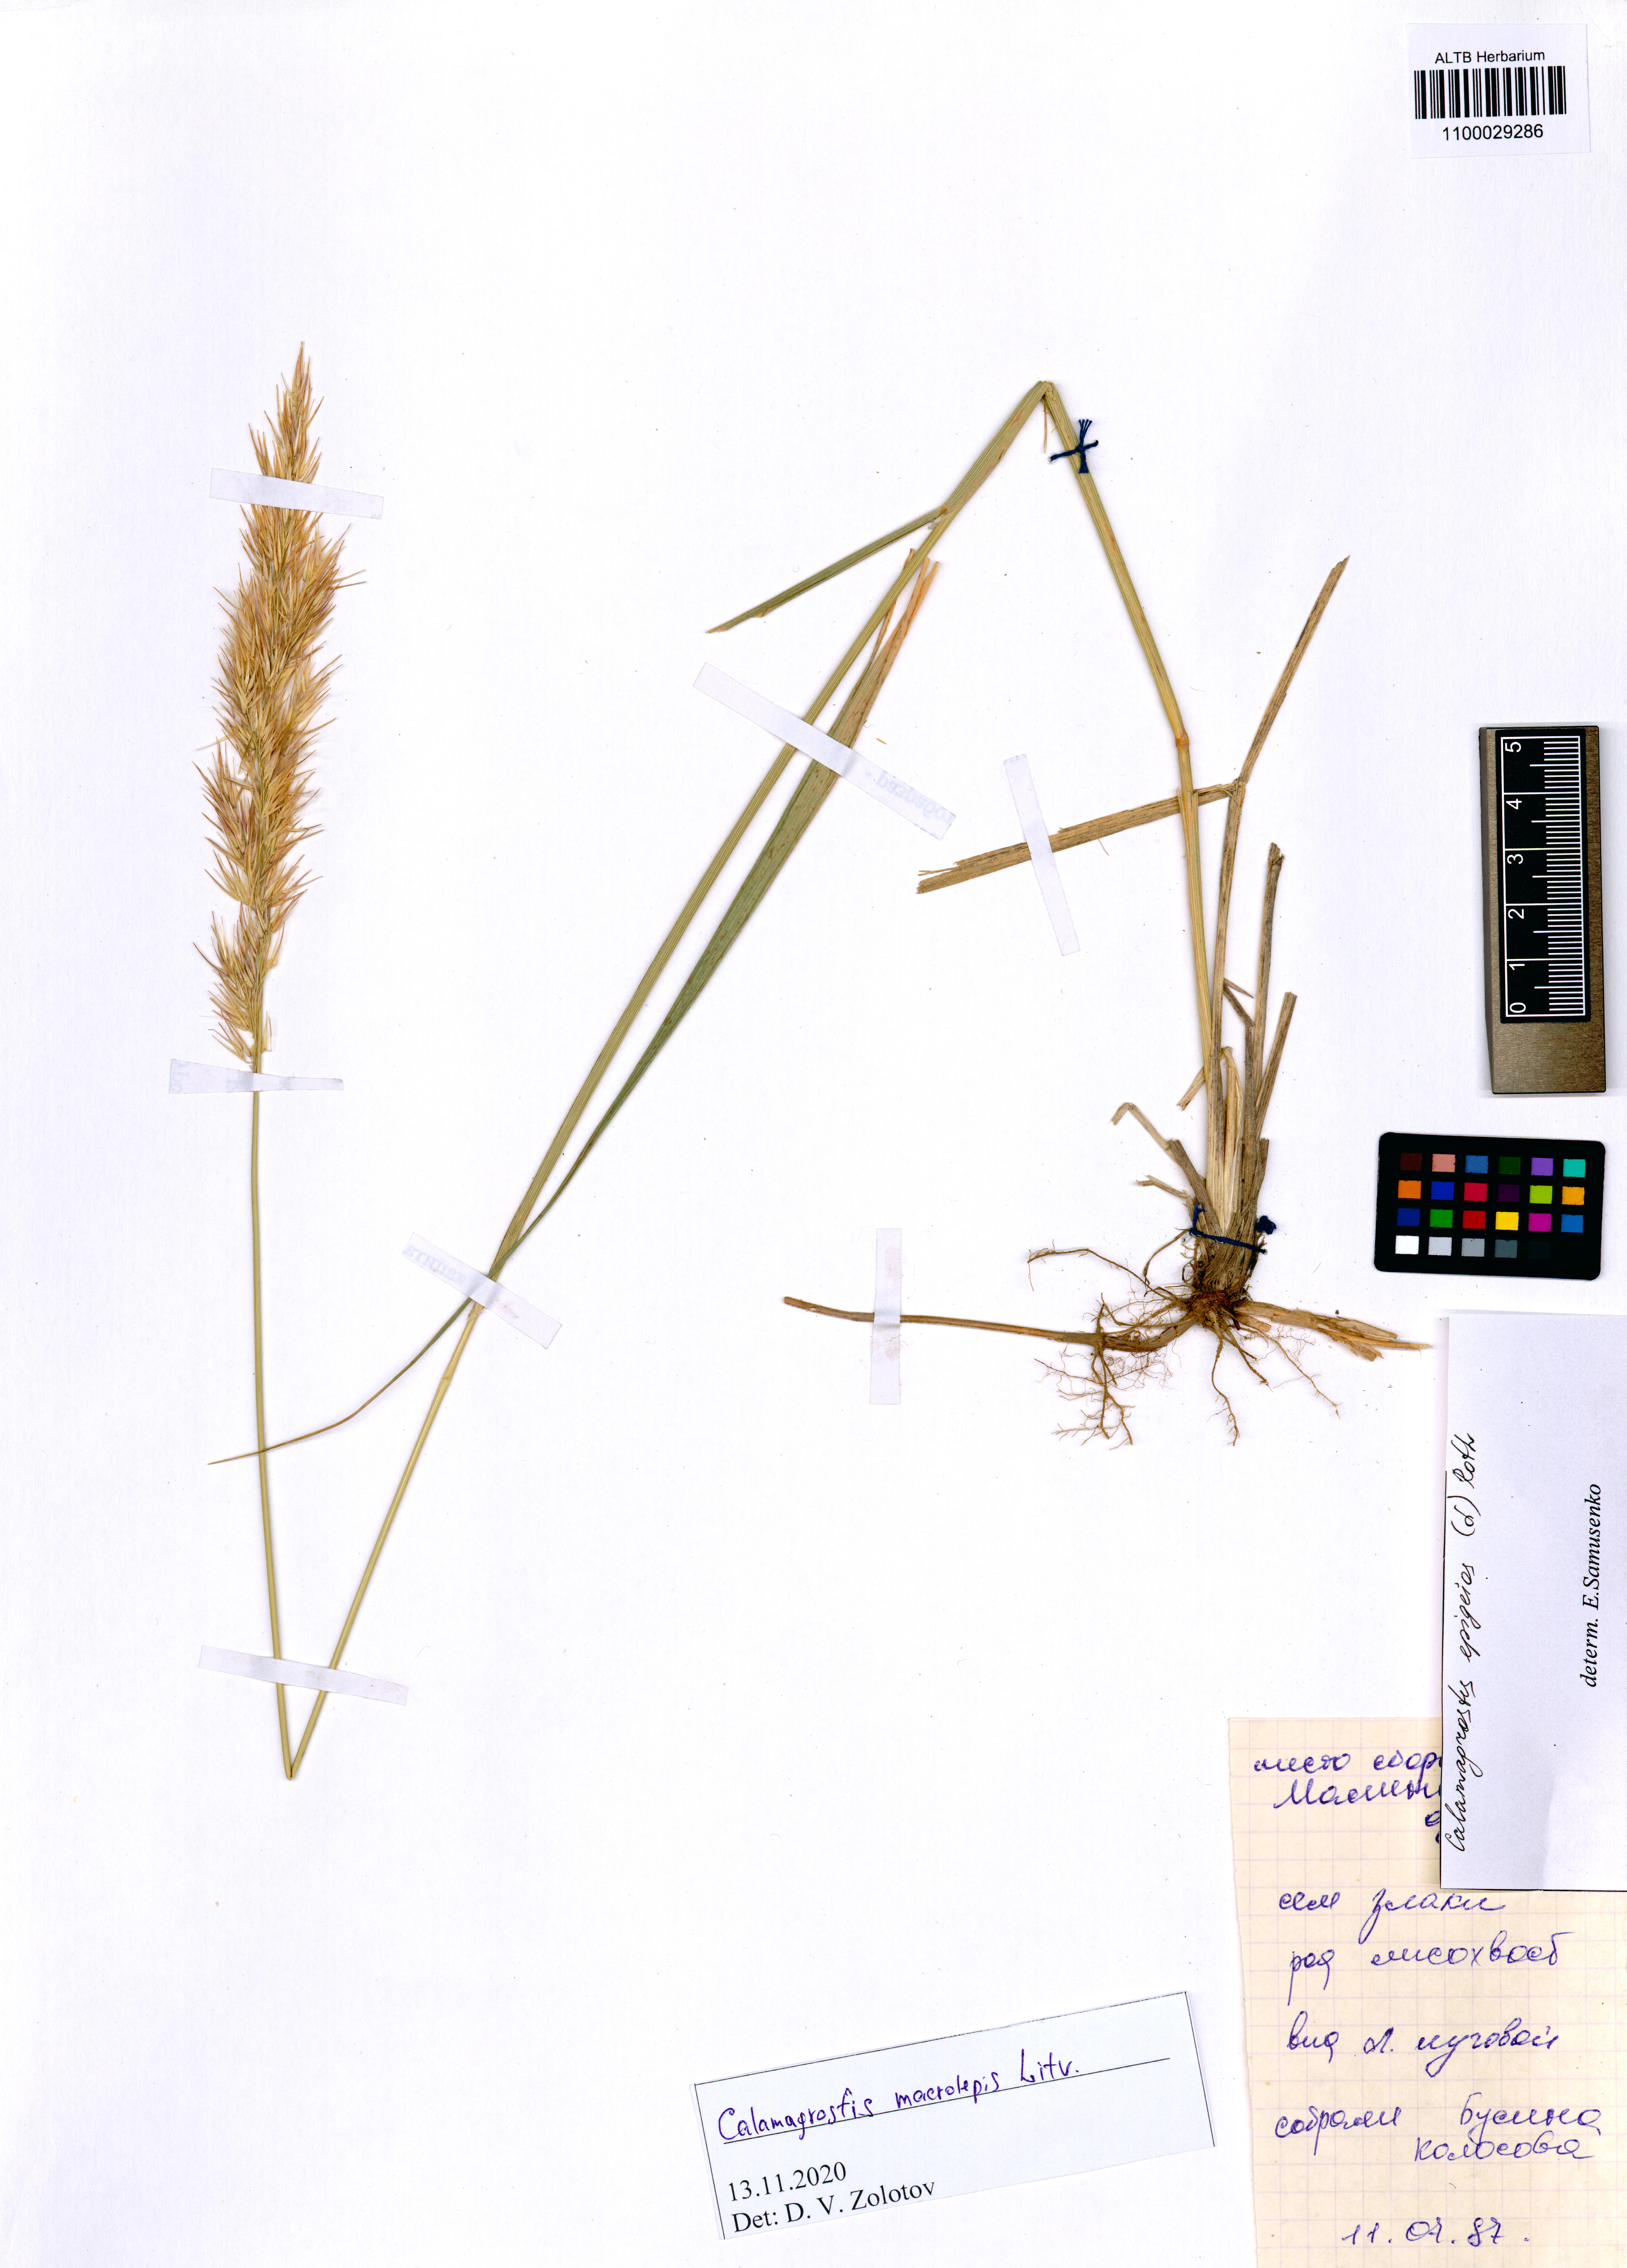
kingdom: Plantae
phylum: Tracheophyta
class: Liliopsida
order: Poales
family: Poaceae
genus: Calamagrostis
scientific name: Calamagrostis macrolepis
